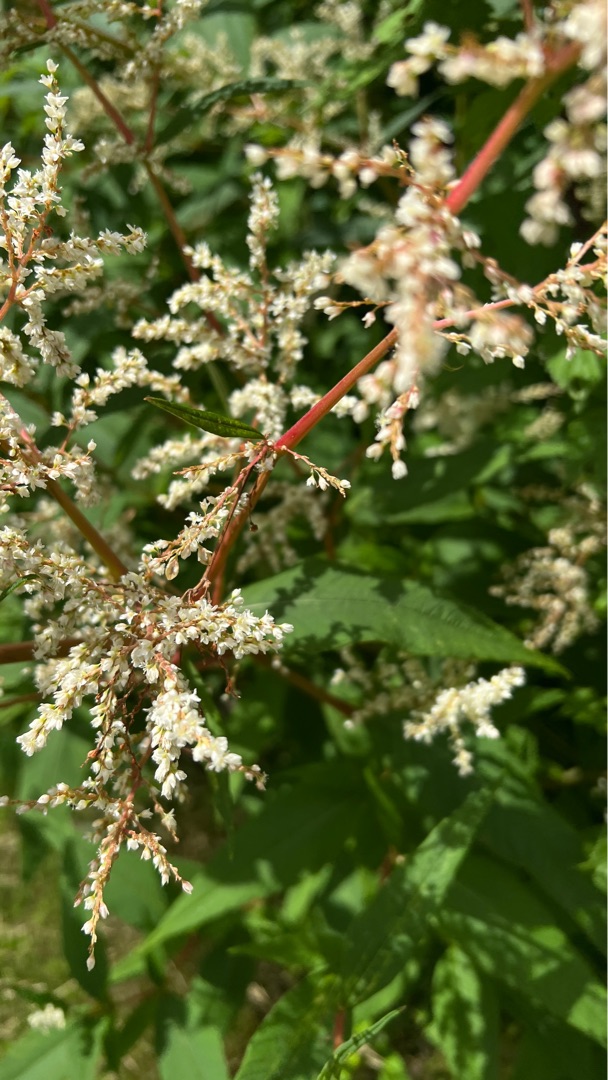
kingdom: Plantae
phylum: Tracheophyta
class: Magnoliopsida
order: Caryophyllales
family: Polygonaceae
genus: Koenigia
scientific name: Koenigia fennica
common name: Finsk pileurt
